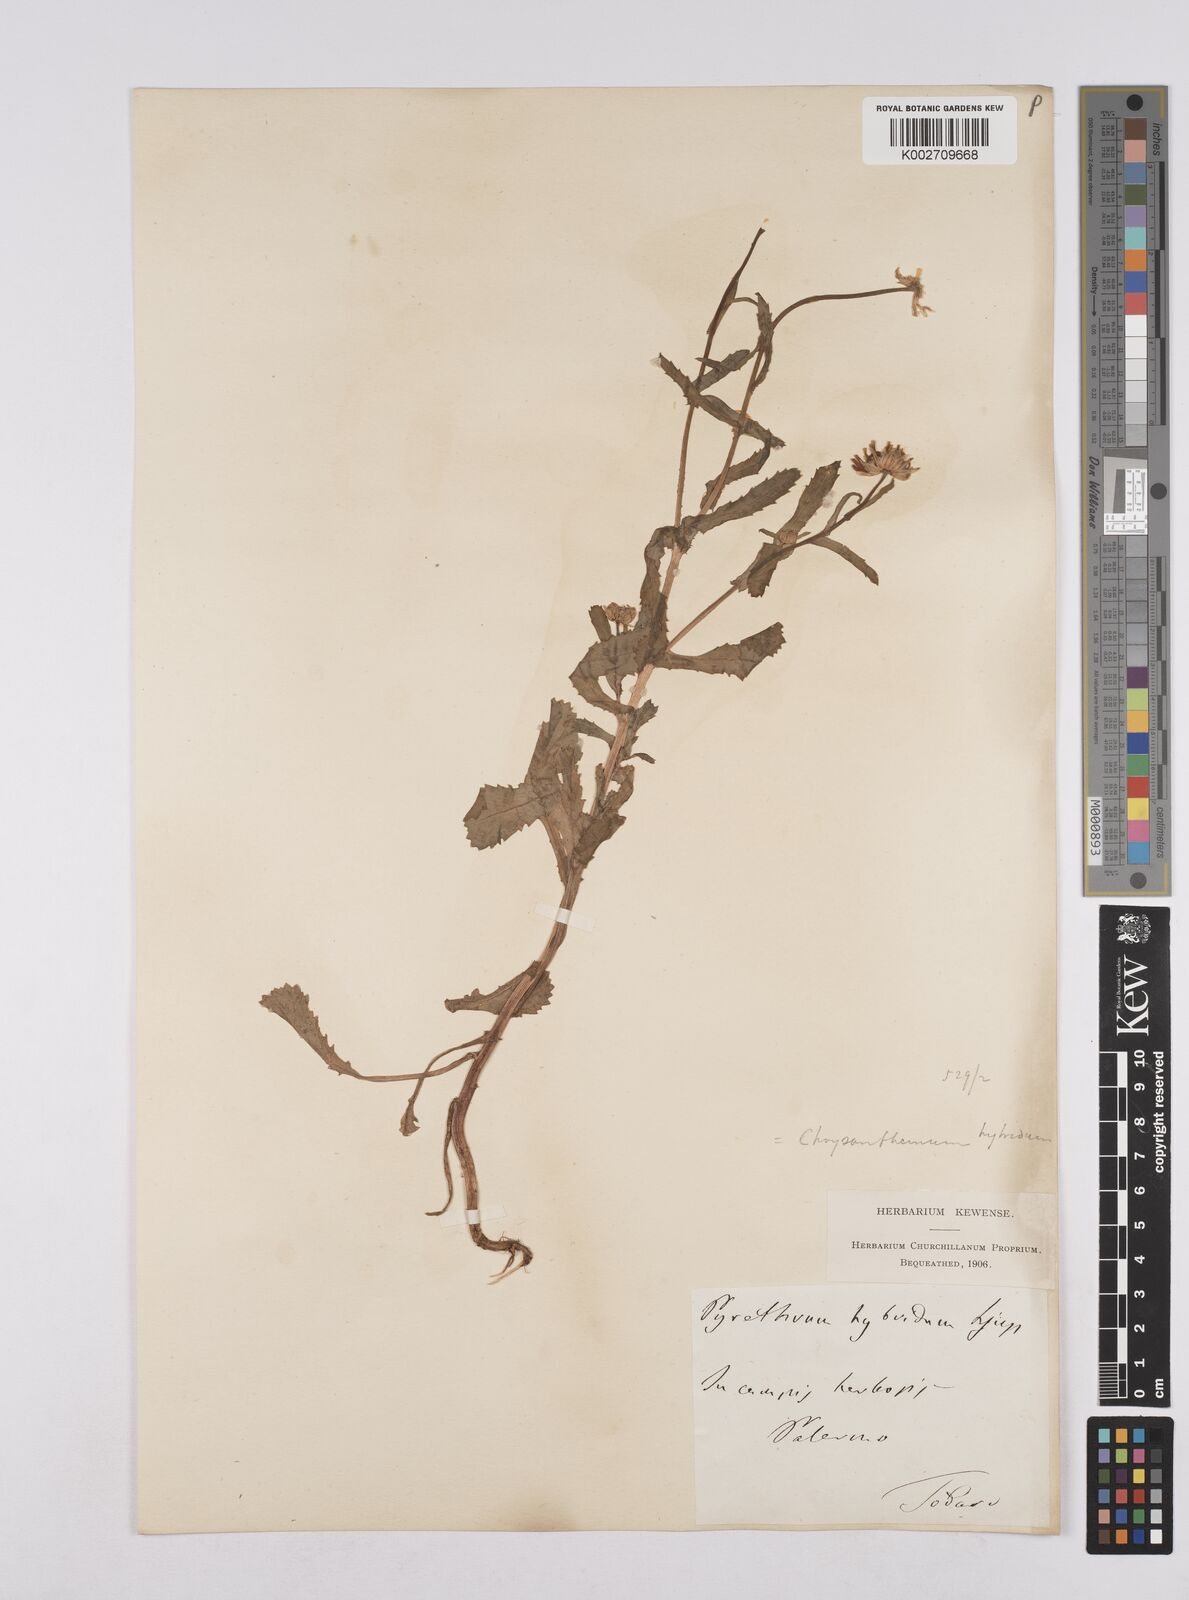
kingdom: Plantae
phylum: Tracheophyta
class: Magnoliopsida
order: Asterales
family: Asteraceae
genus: Coleostephus
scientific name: Coleostephus paludosus
